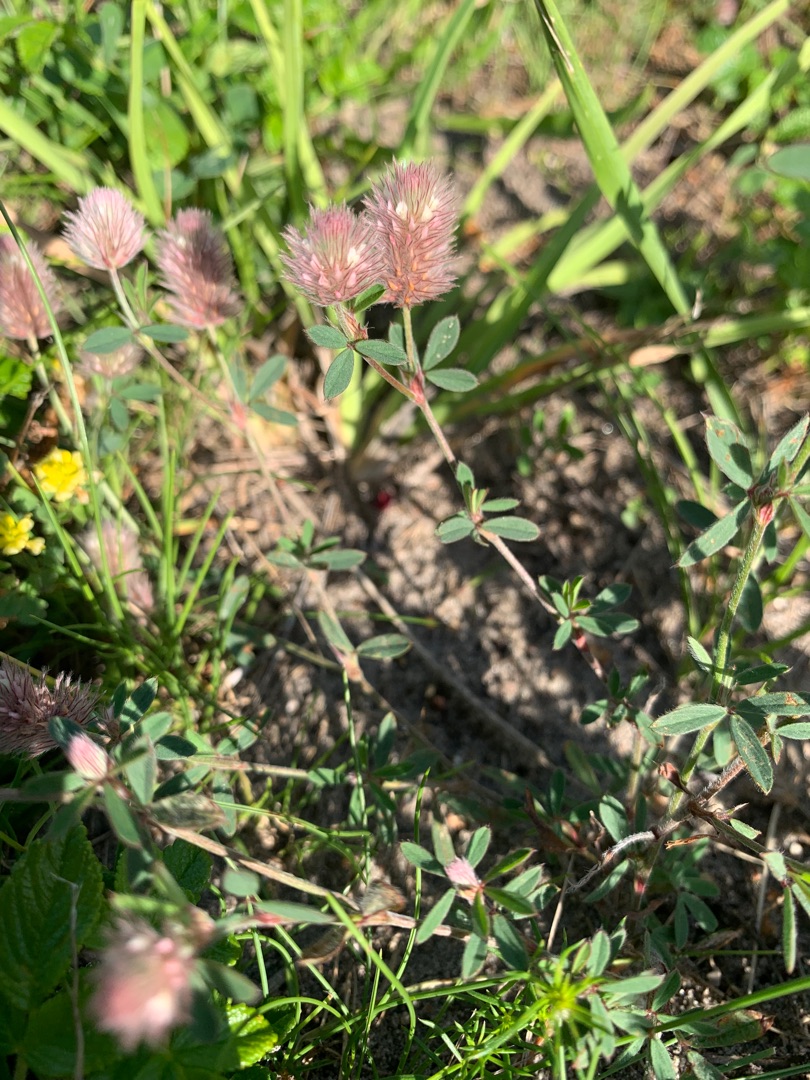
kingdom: Plantae
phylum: Tracheophyta
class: Magnoliopsida
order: Fabales
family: Fabaceae
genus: Trifolium
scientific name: Trifolium arvense
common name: Hare-kløver
